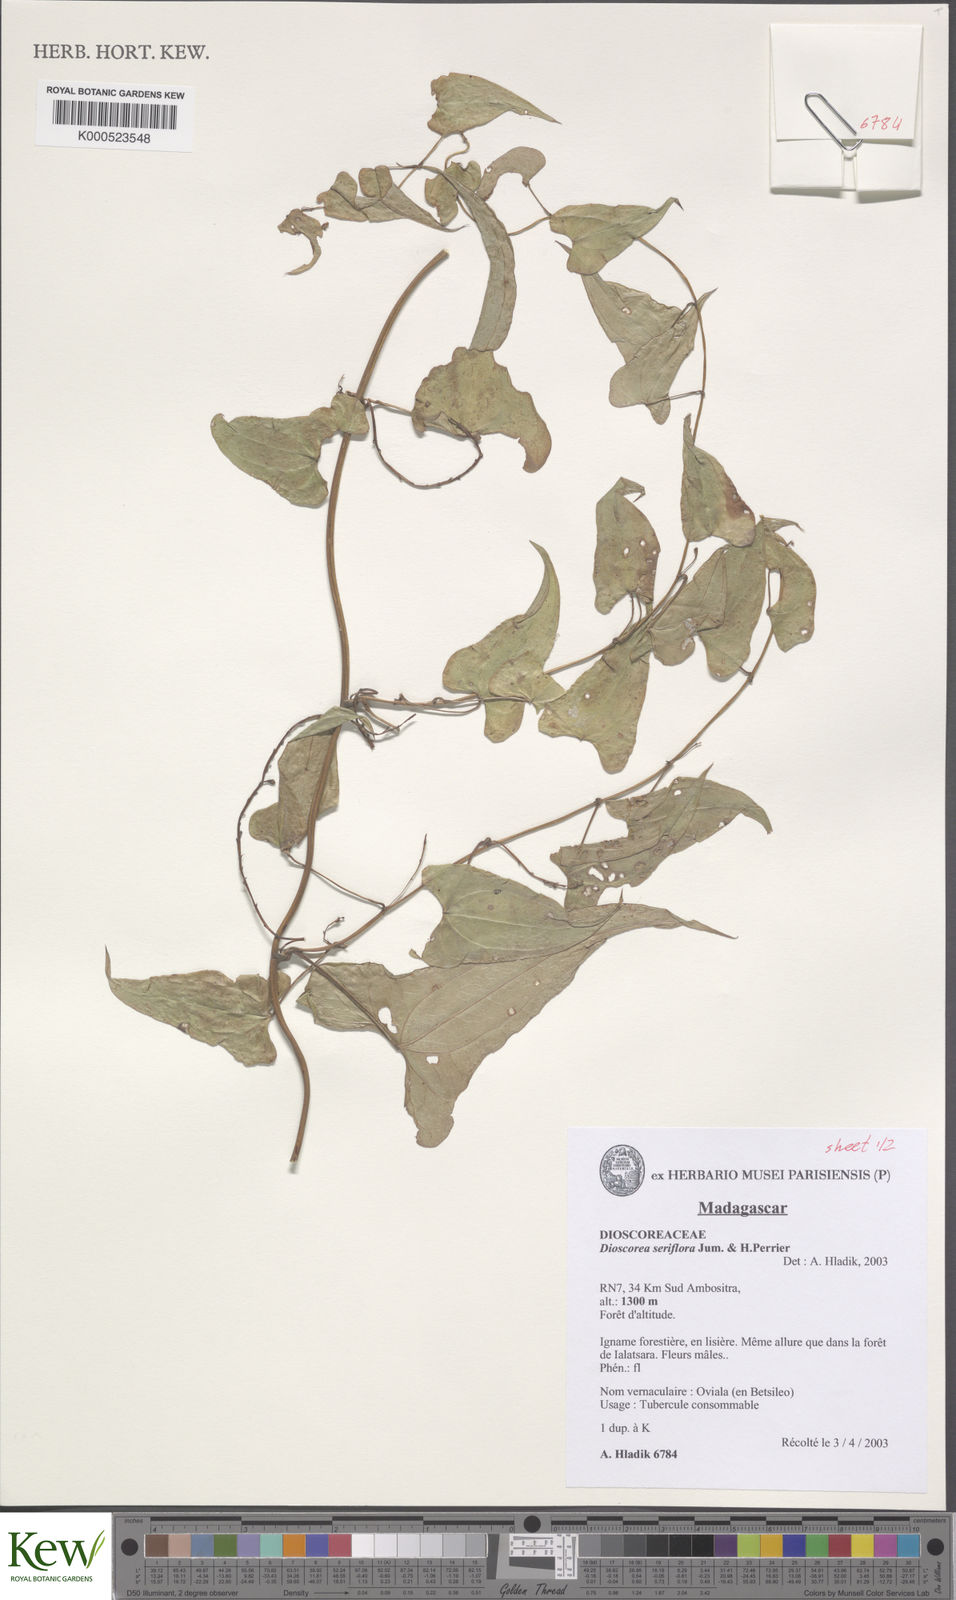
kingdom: Plantae
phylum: Tracheophyta
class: Liliopsida
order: Dioscoreales
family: Dioscoreaceae
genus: Dioscorea
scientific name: Dioscorea seriflora
